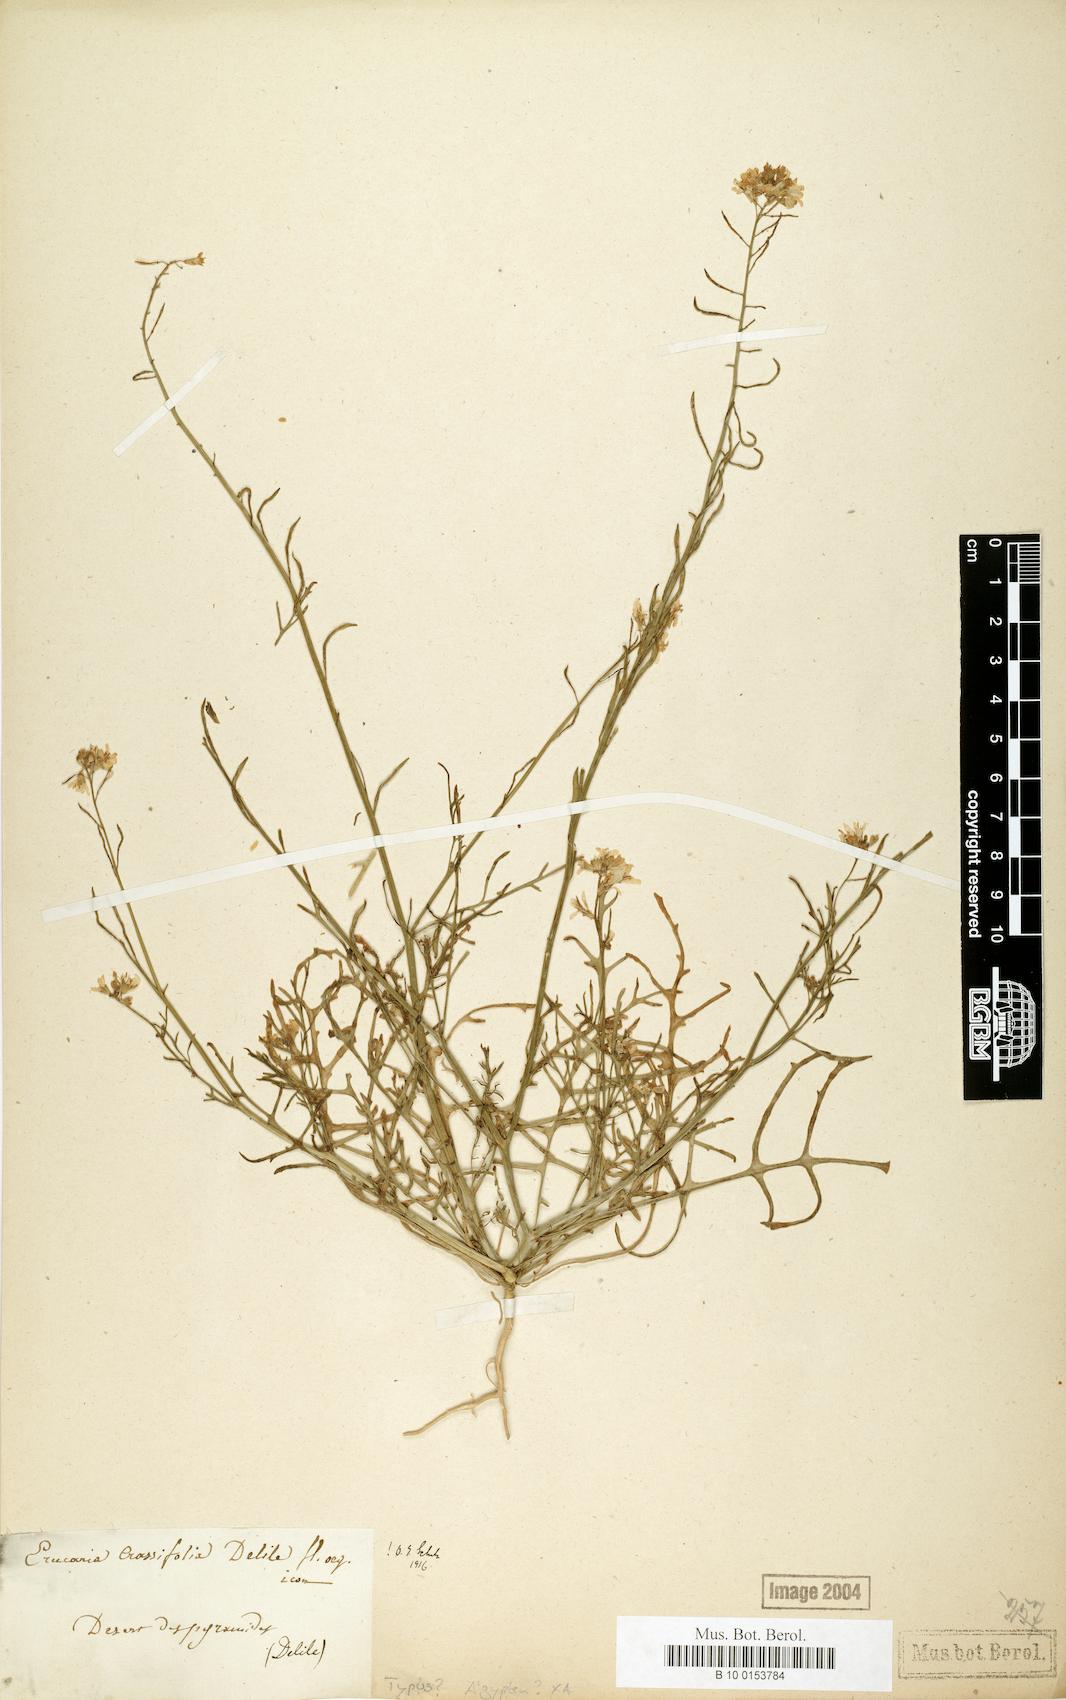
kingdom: Plantae
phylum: Tracheophyta
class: Magnoliopsida
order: Brassicales
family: Brassicaceae
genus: Erucaria
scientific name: Erucaria crassifolia
